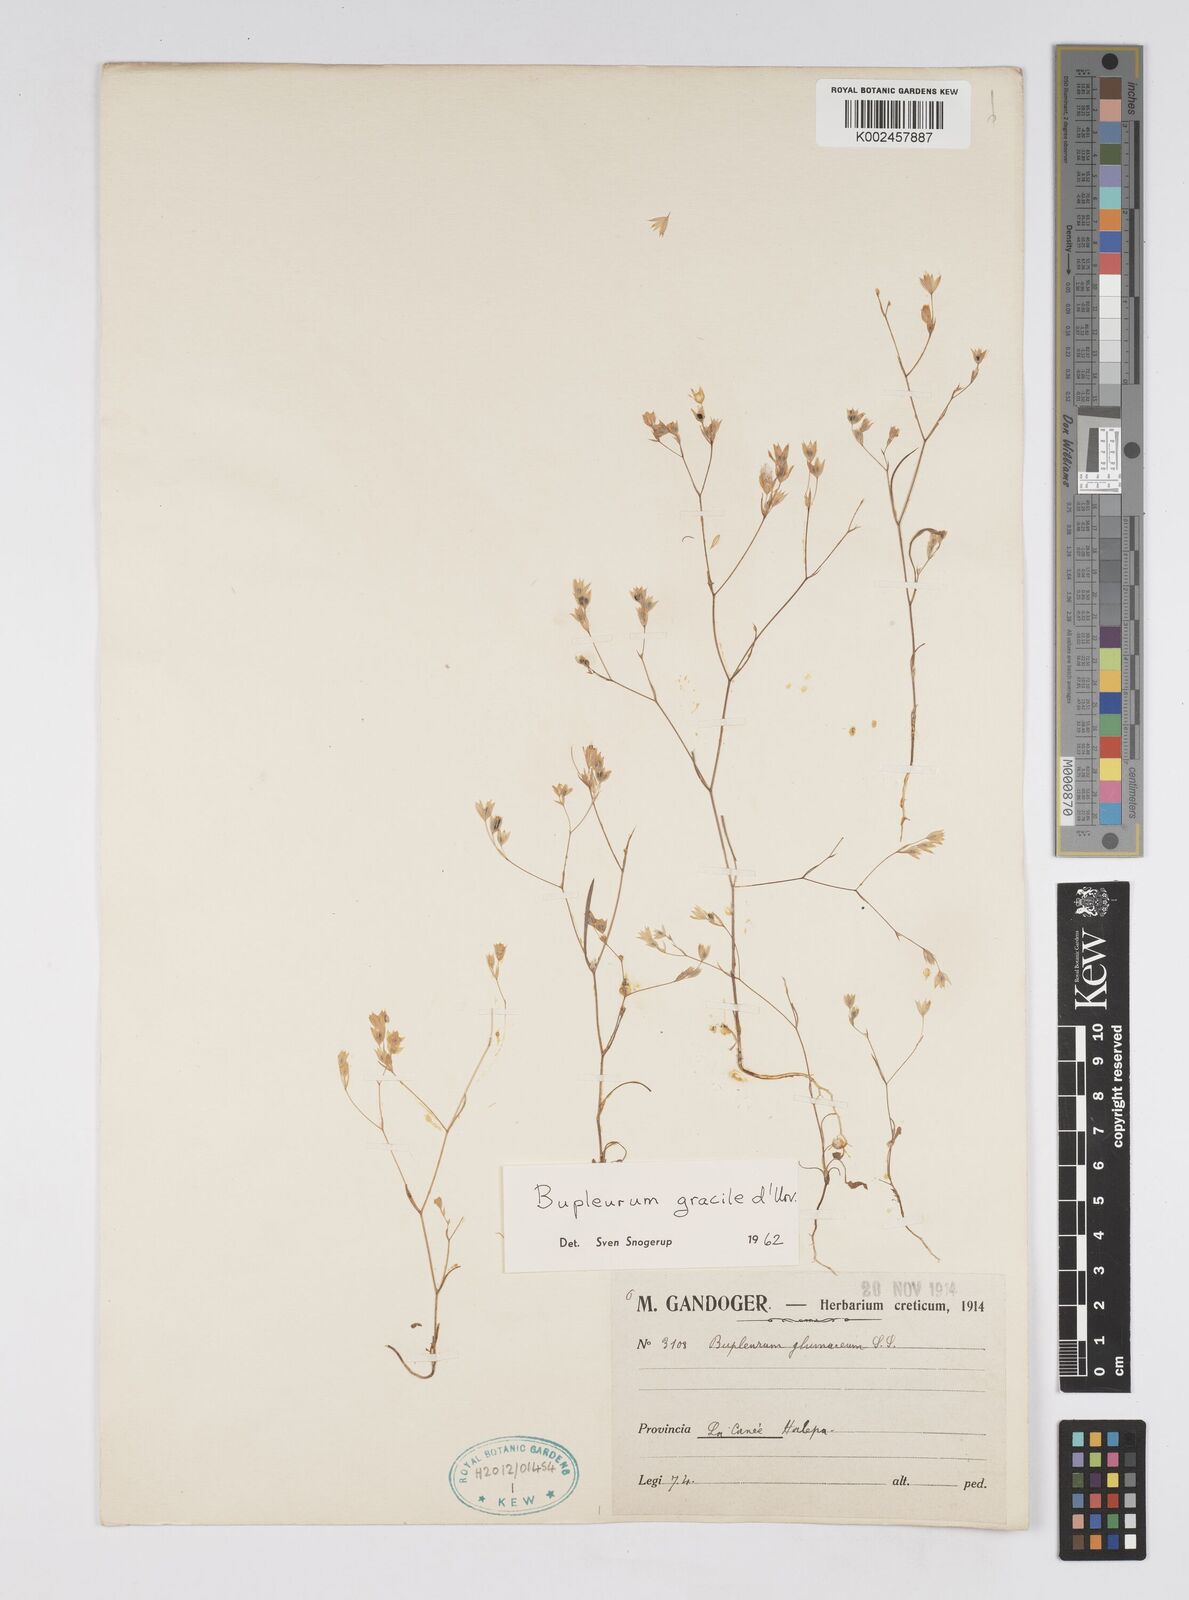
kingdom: Plantae
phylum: Tracheophyta
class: Magnoliopsida
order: Apiales
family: Apiaceae
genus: Bupleurum
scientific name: Bupleurum gracile
